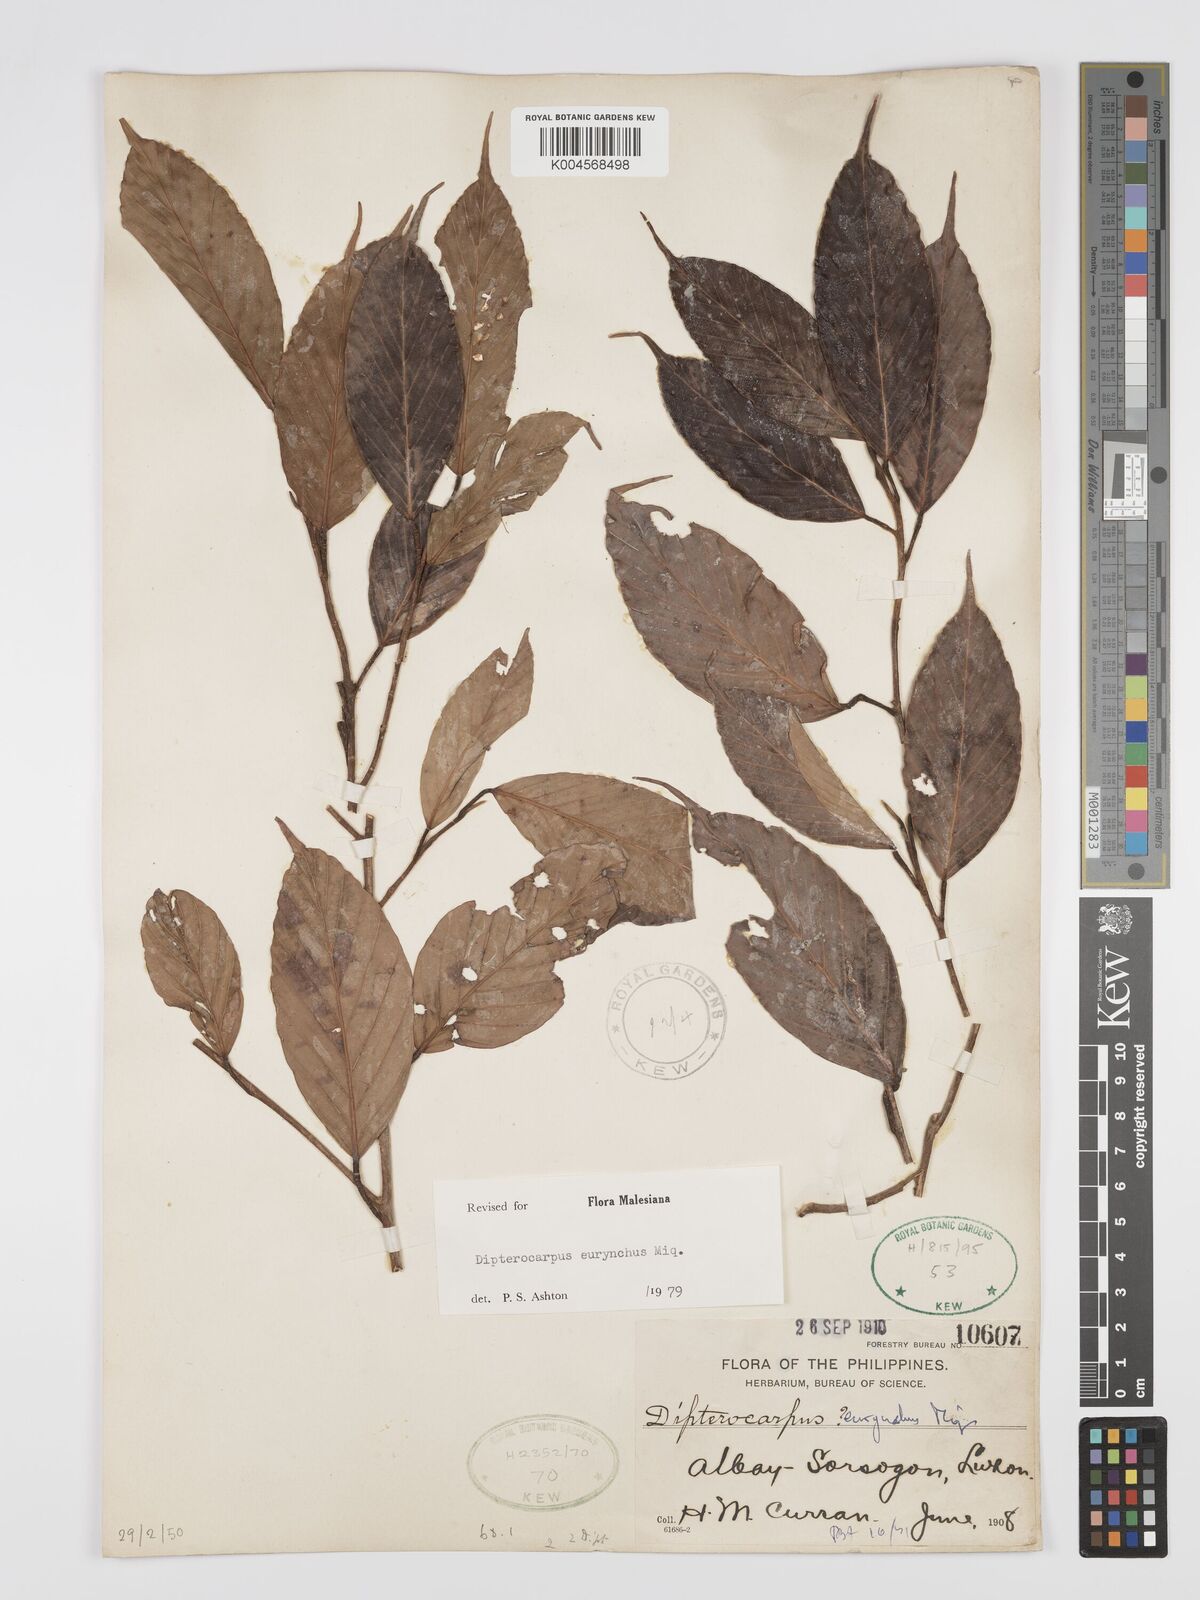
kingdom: Plantae
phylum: Tracheophyta
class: Magnoliopsida
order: Malvales
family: Dipterocarpaceae
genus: Dipterocarpus
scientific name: Dipterocarpus eurhynchus
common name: Keruing
